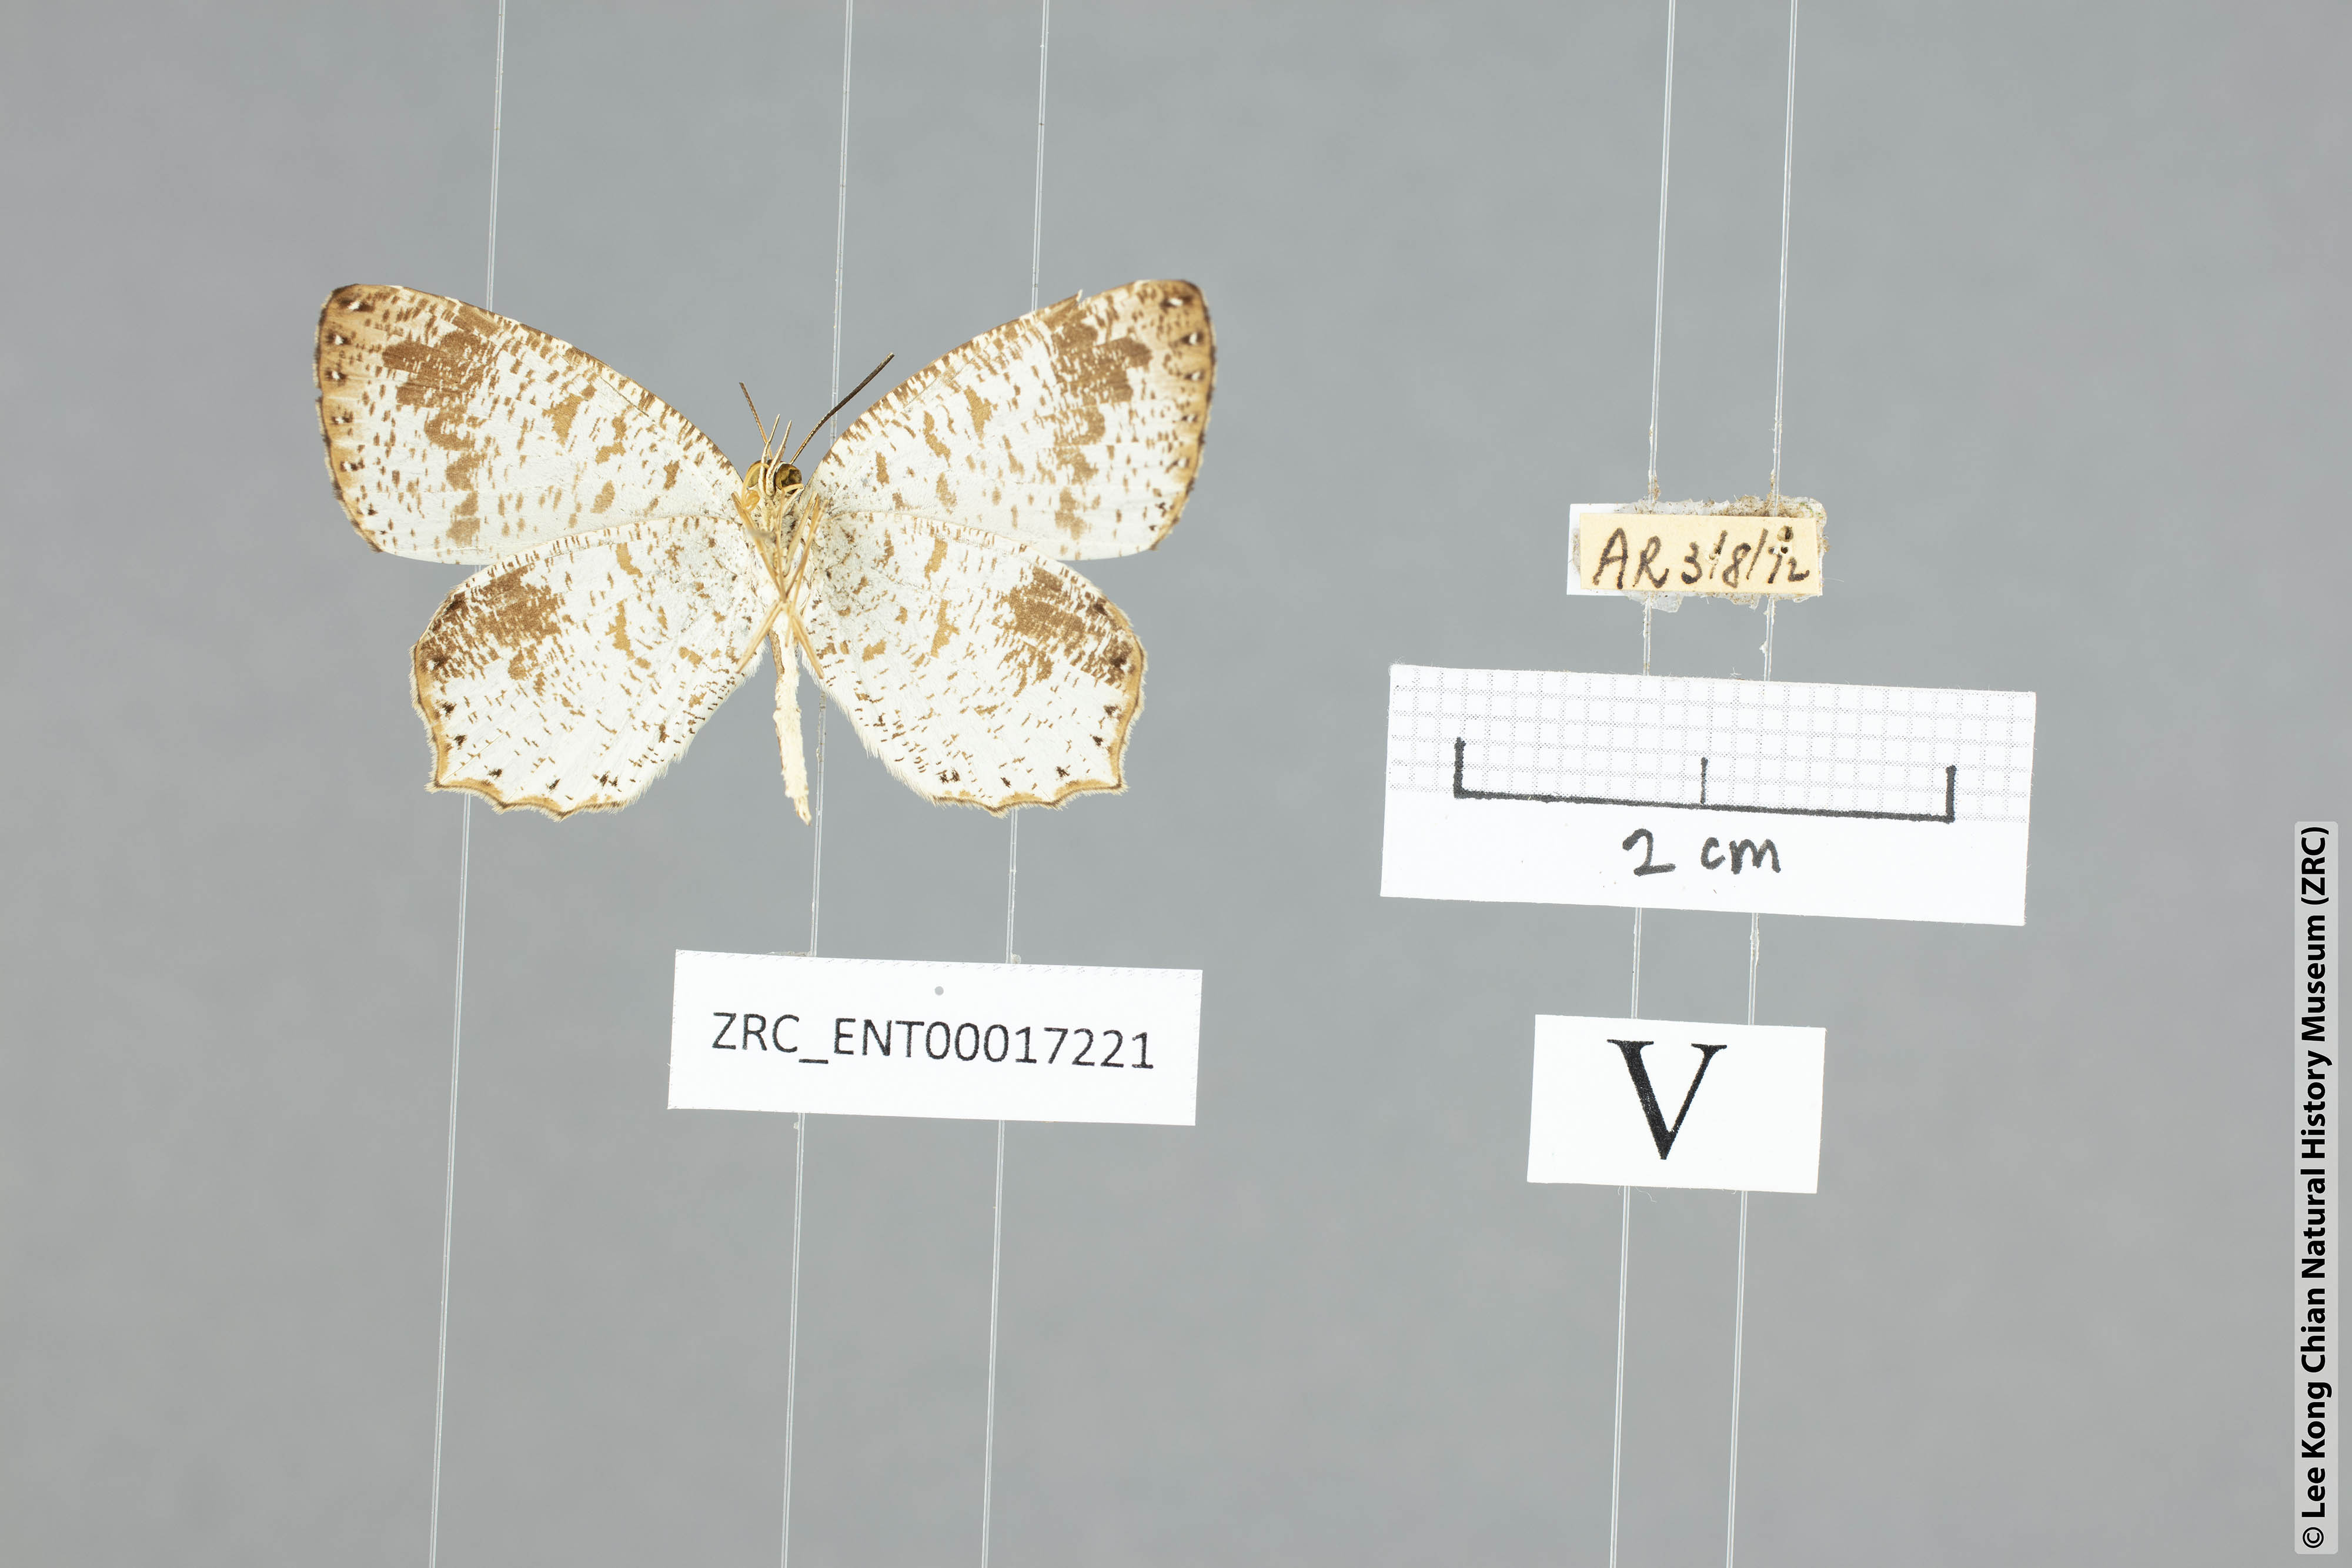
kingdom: Animalia
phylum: Arthropoda
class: Insecta
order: Lepidoptera
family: Lycaenidae
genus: Allotinus
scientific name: Allotinus fabius
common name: Angled darkie
